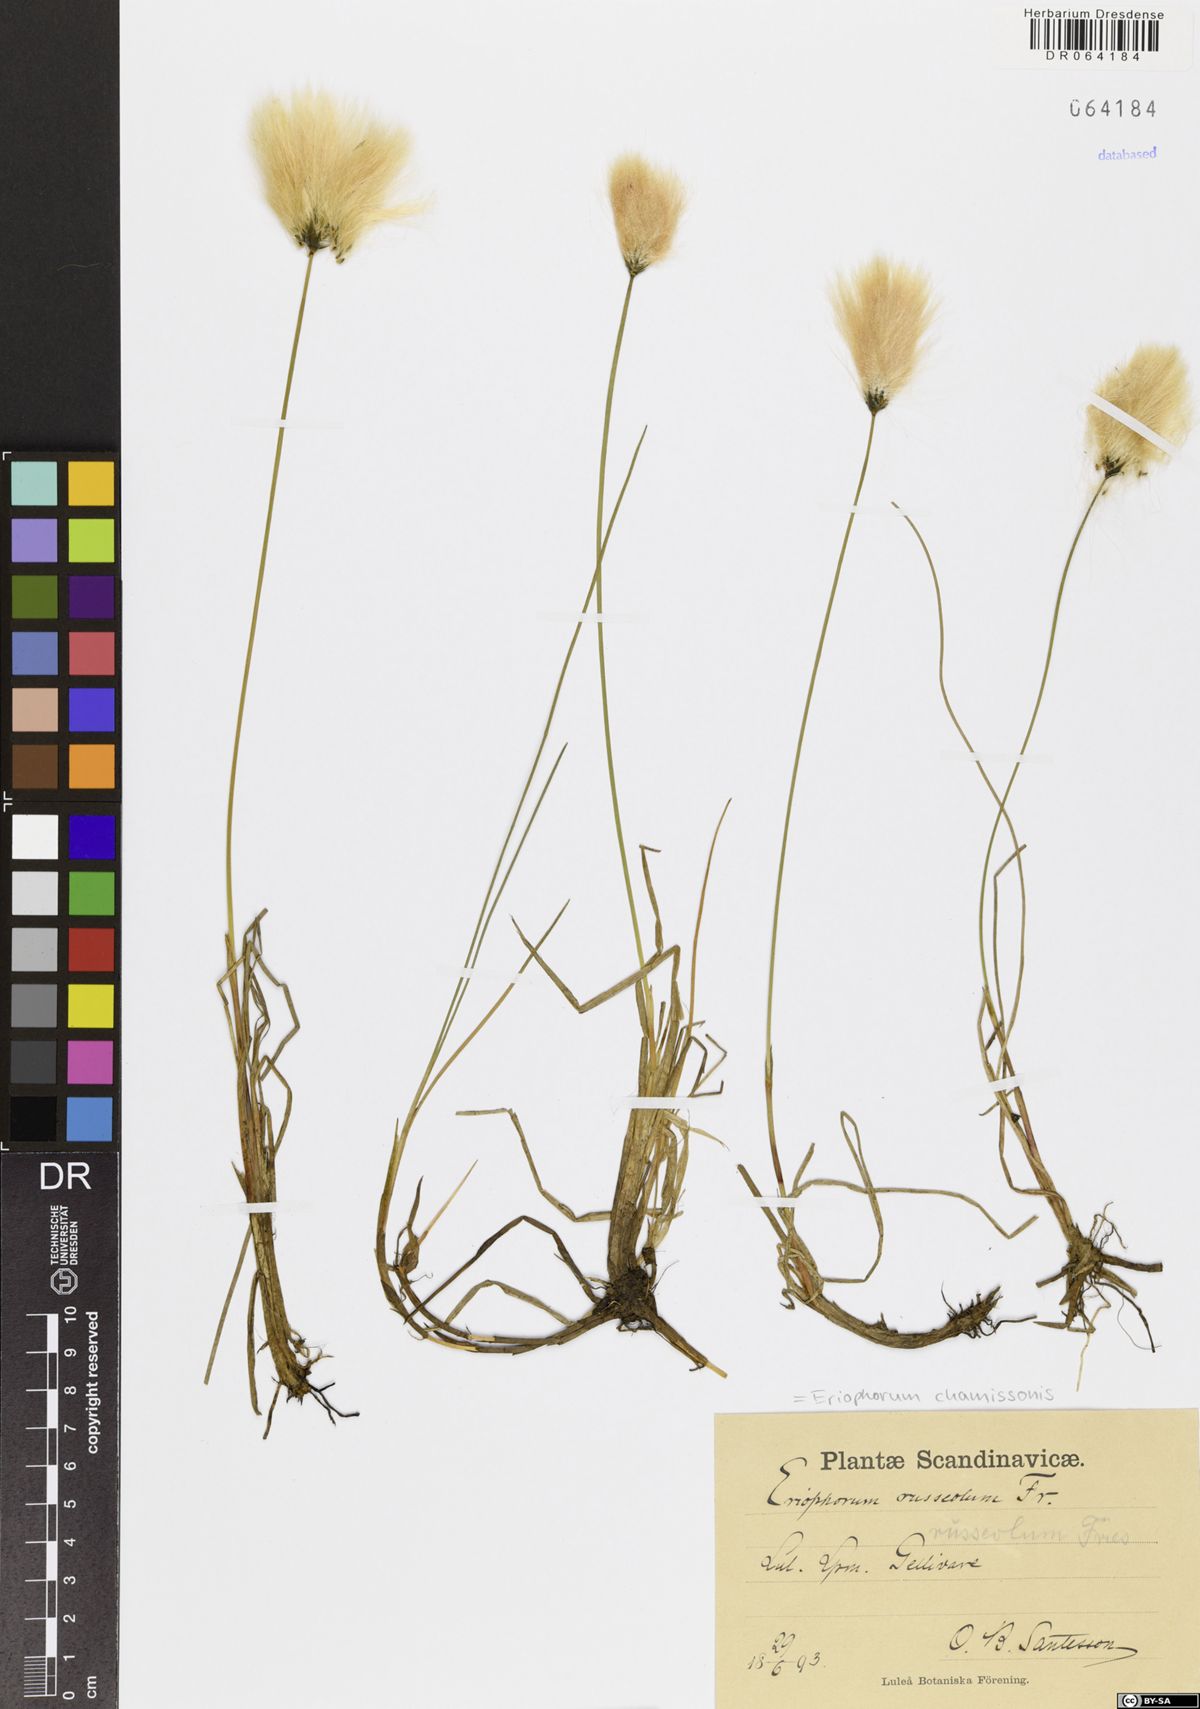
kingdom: Plantae
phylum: Tracheophyta
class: Liliopsida
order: Poales
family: Cyperaceae
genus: Eriophorum
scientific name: Eriophorum chamissonis
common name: Chamisso's cottongrass
